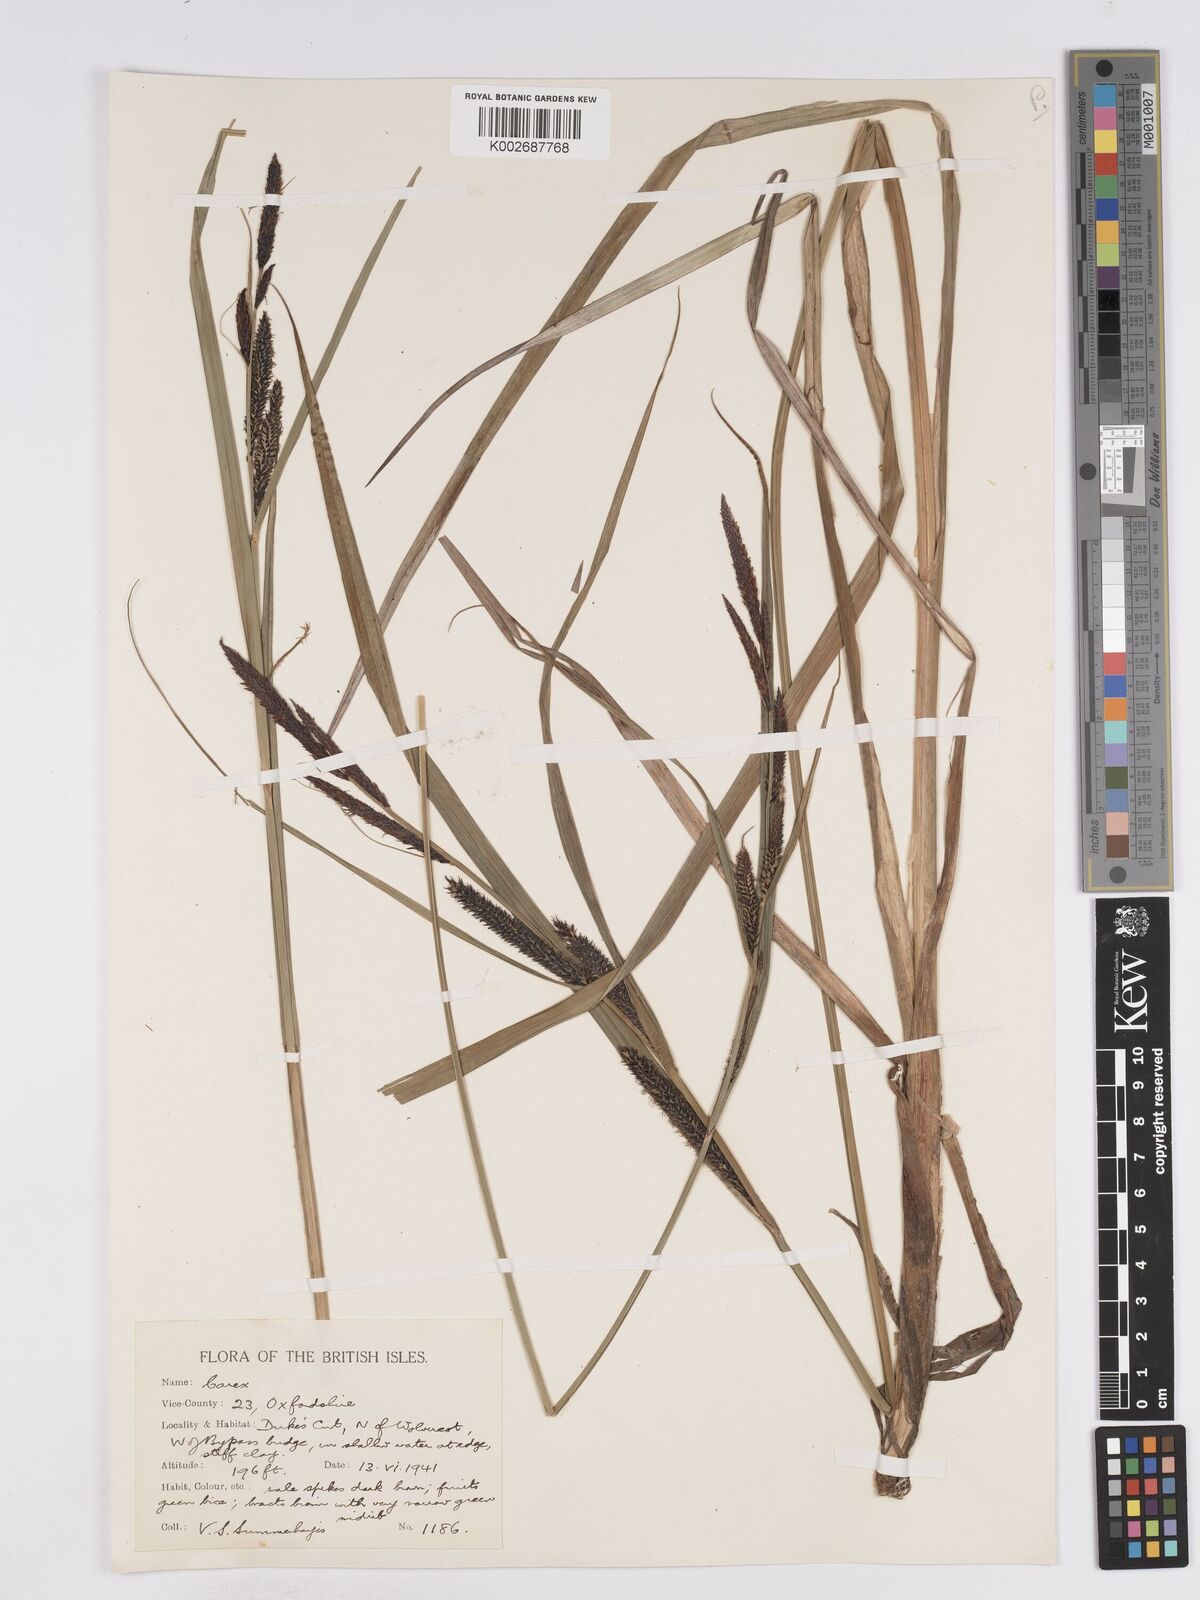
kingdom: Plantae
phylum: Tracheophyta
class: Liliopsida
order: Poales
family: Cyperaceae
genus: Carex
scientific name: Carex acuta
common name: Slender tufted-sedge
